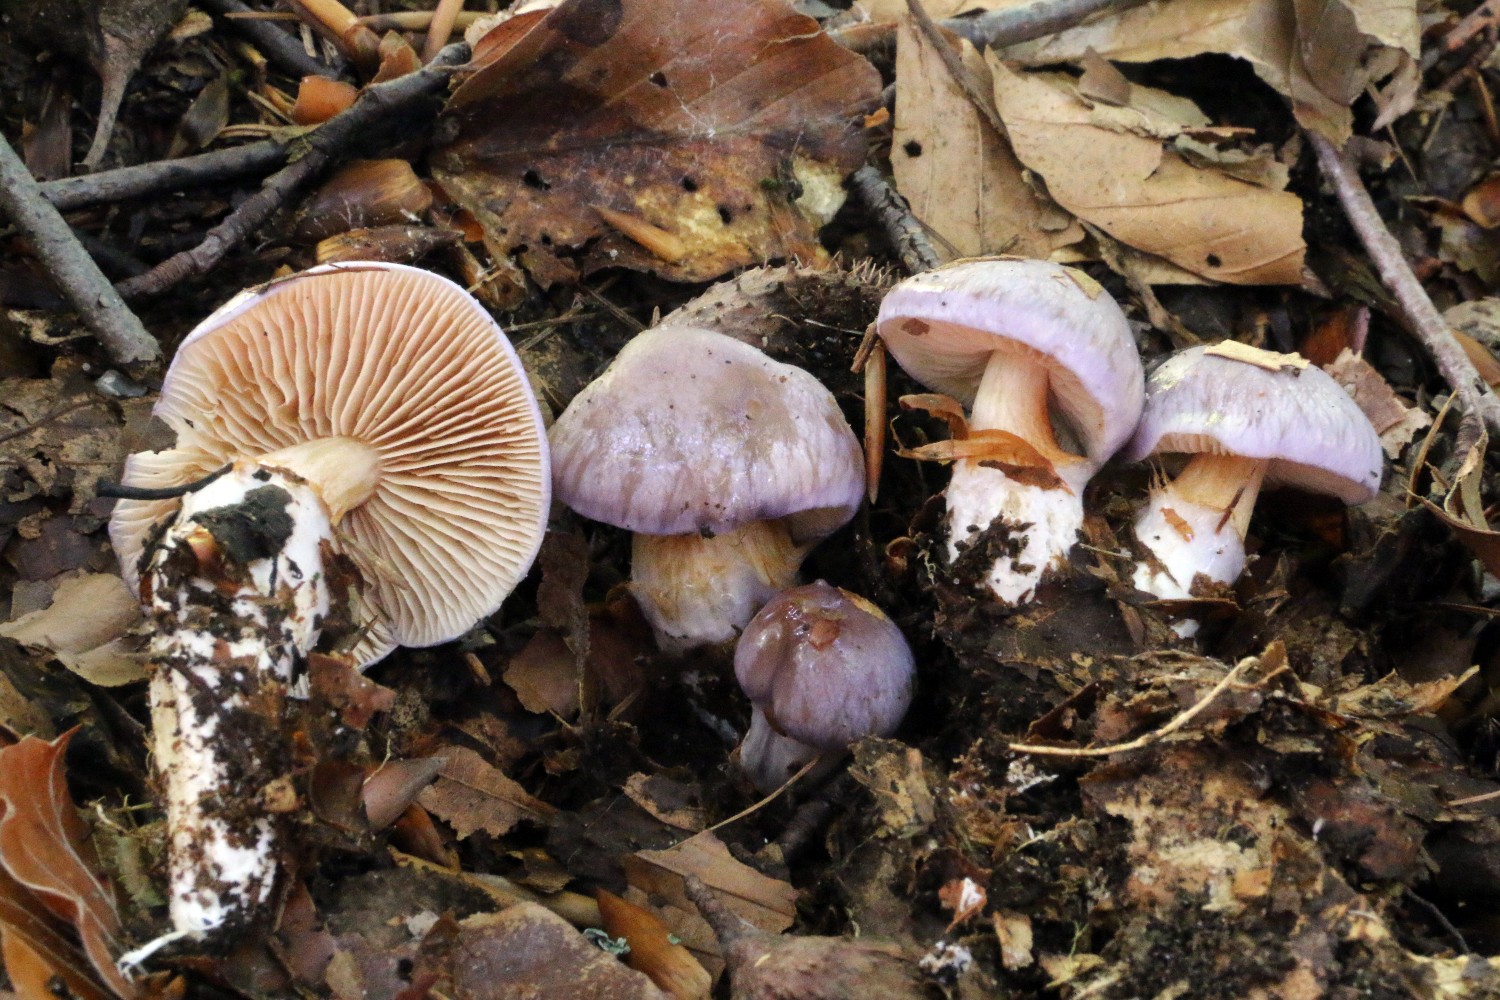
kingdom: Fungi
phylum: Basidiomycota
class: Agaricomycetes
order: Agaricales
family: Cortinariaceae
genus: Thaxterogaster
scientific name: Thaxterogaster croceocoeruleus
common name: blågullig slørhat
